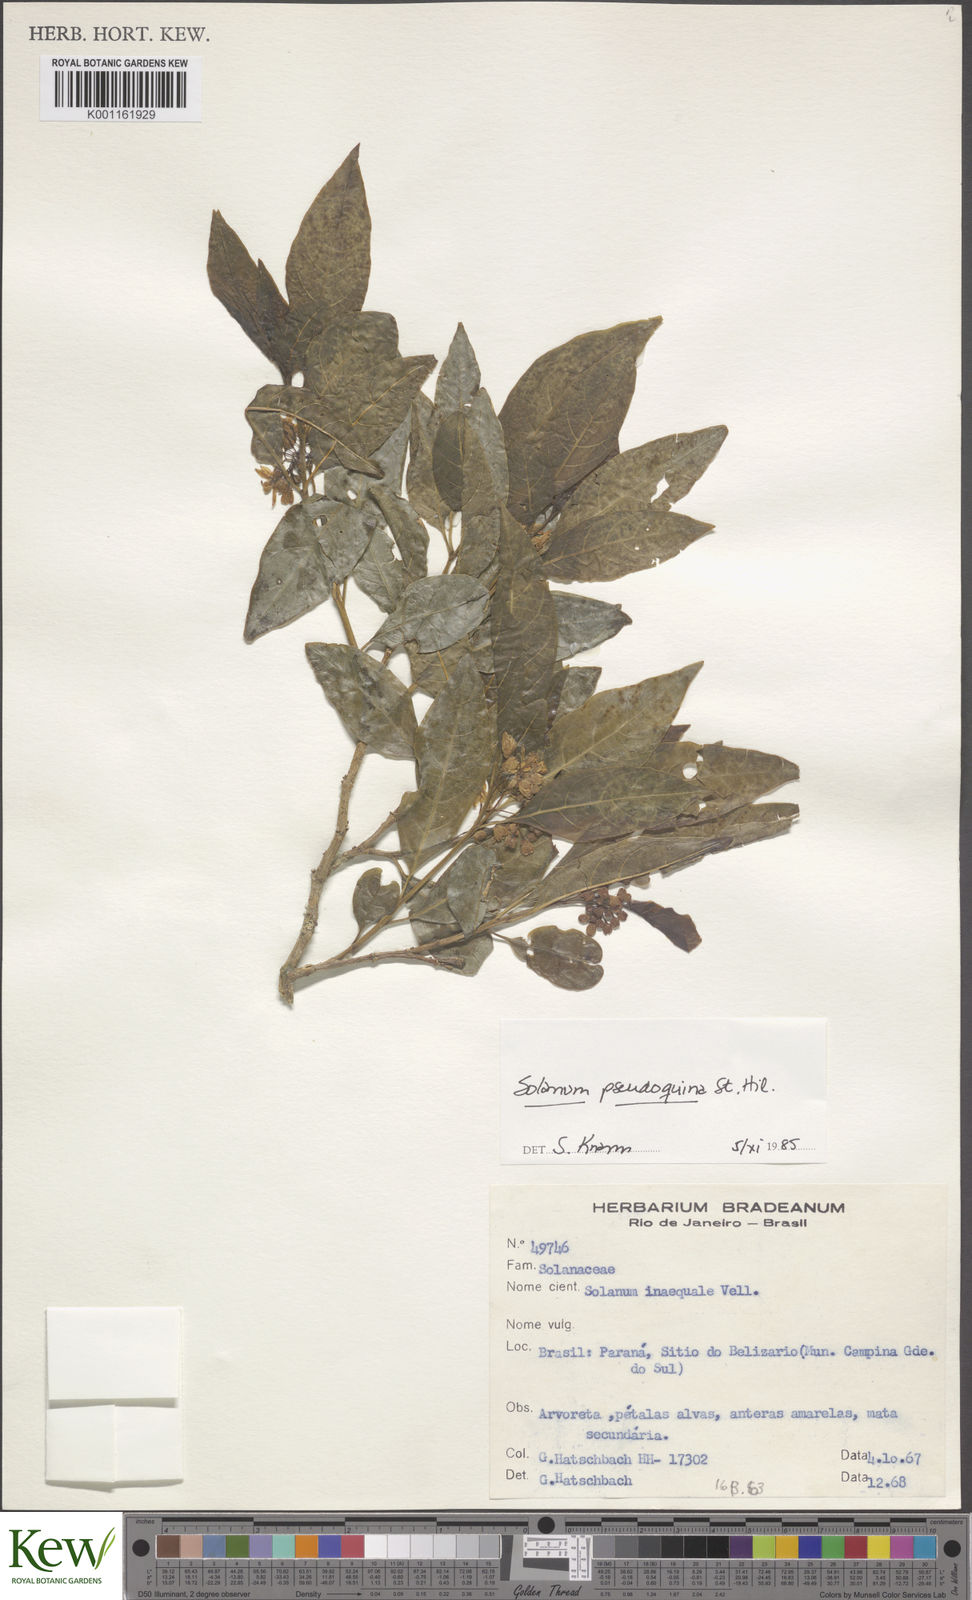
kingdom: Plantae
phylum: Tracheophyta
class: Magnoliopsida
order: Solanales
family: Solanaceae
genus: Solanum
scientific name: Solanum pseudoquina
